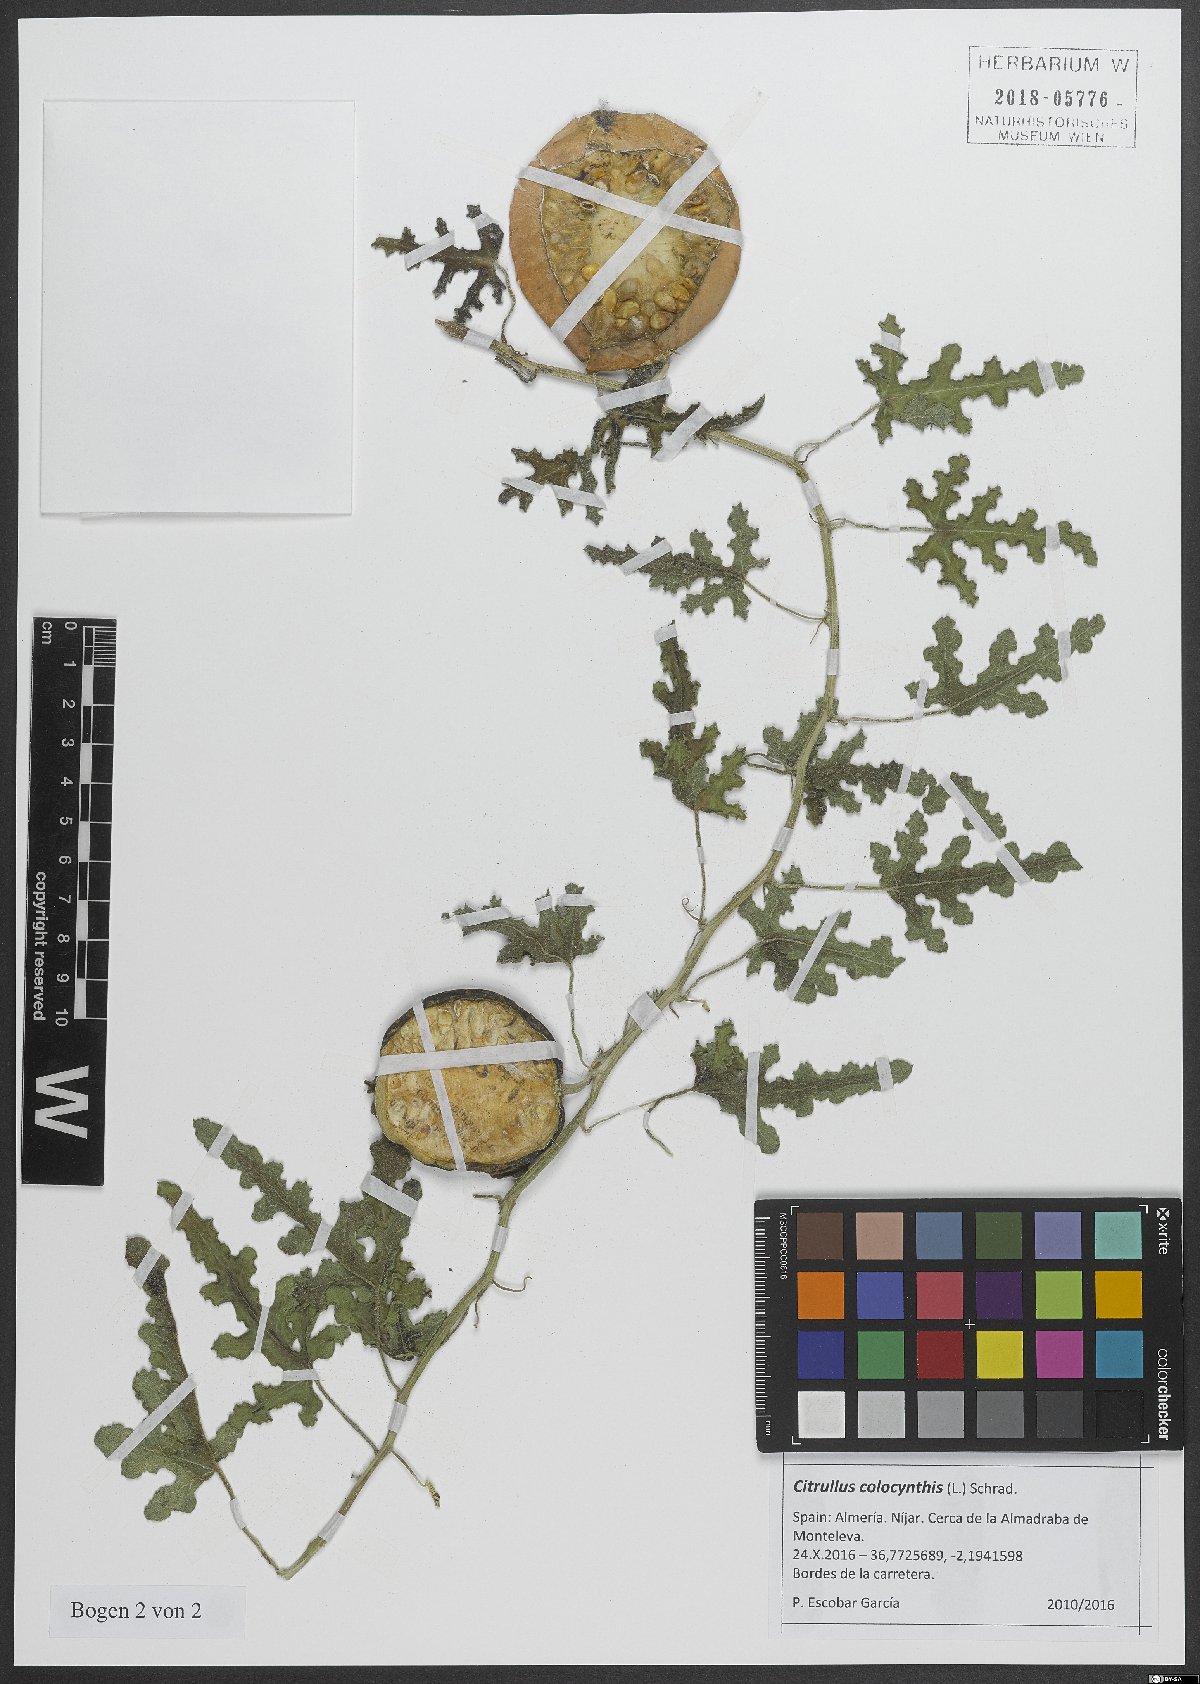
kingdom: Plantae
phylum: Tracheophyta
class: Magnoliopsida
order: Cucurbitales
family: Cucurbitaceae
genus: Citrullus
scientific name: Citrullus colocynthis
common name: Colocynth
